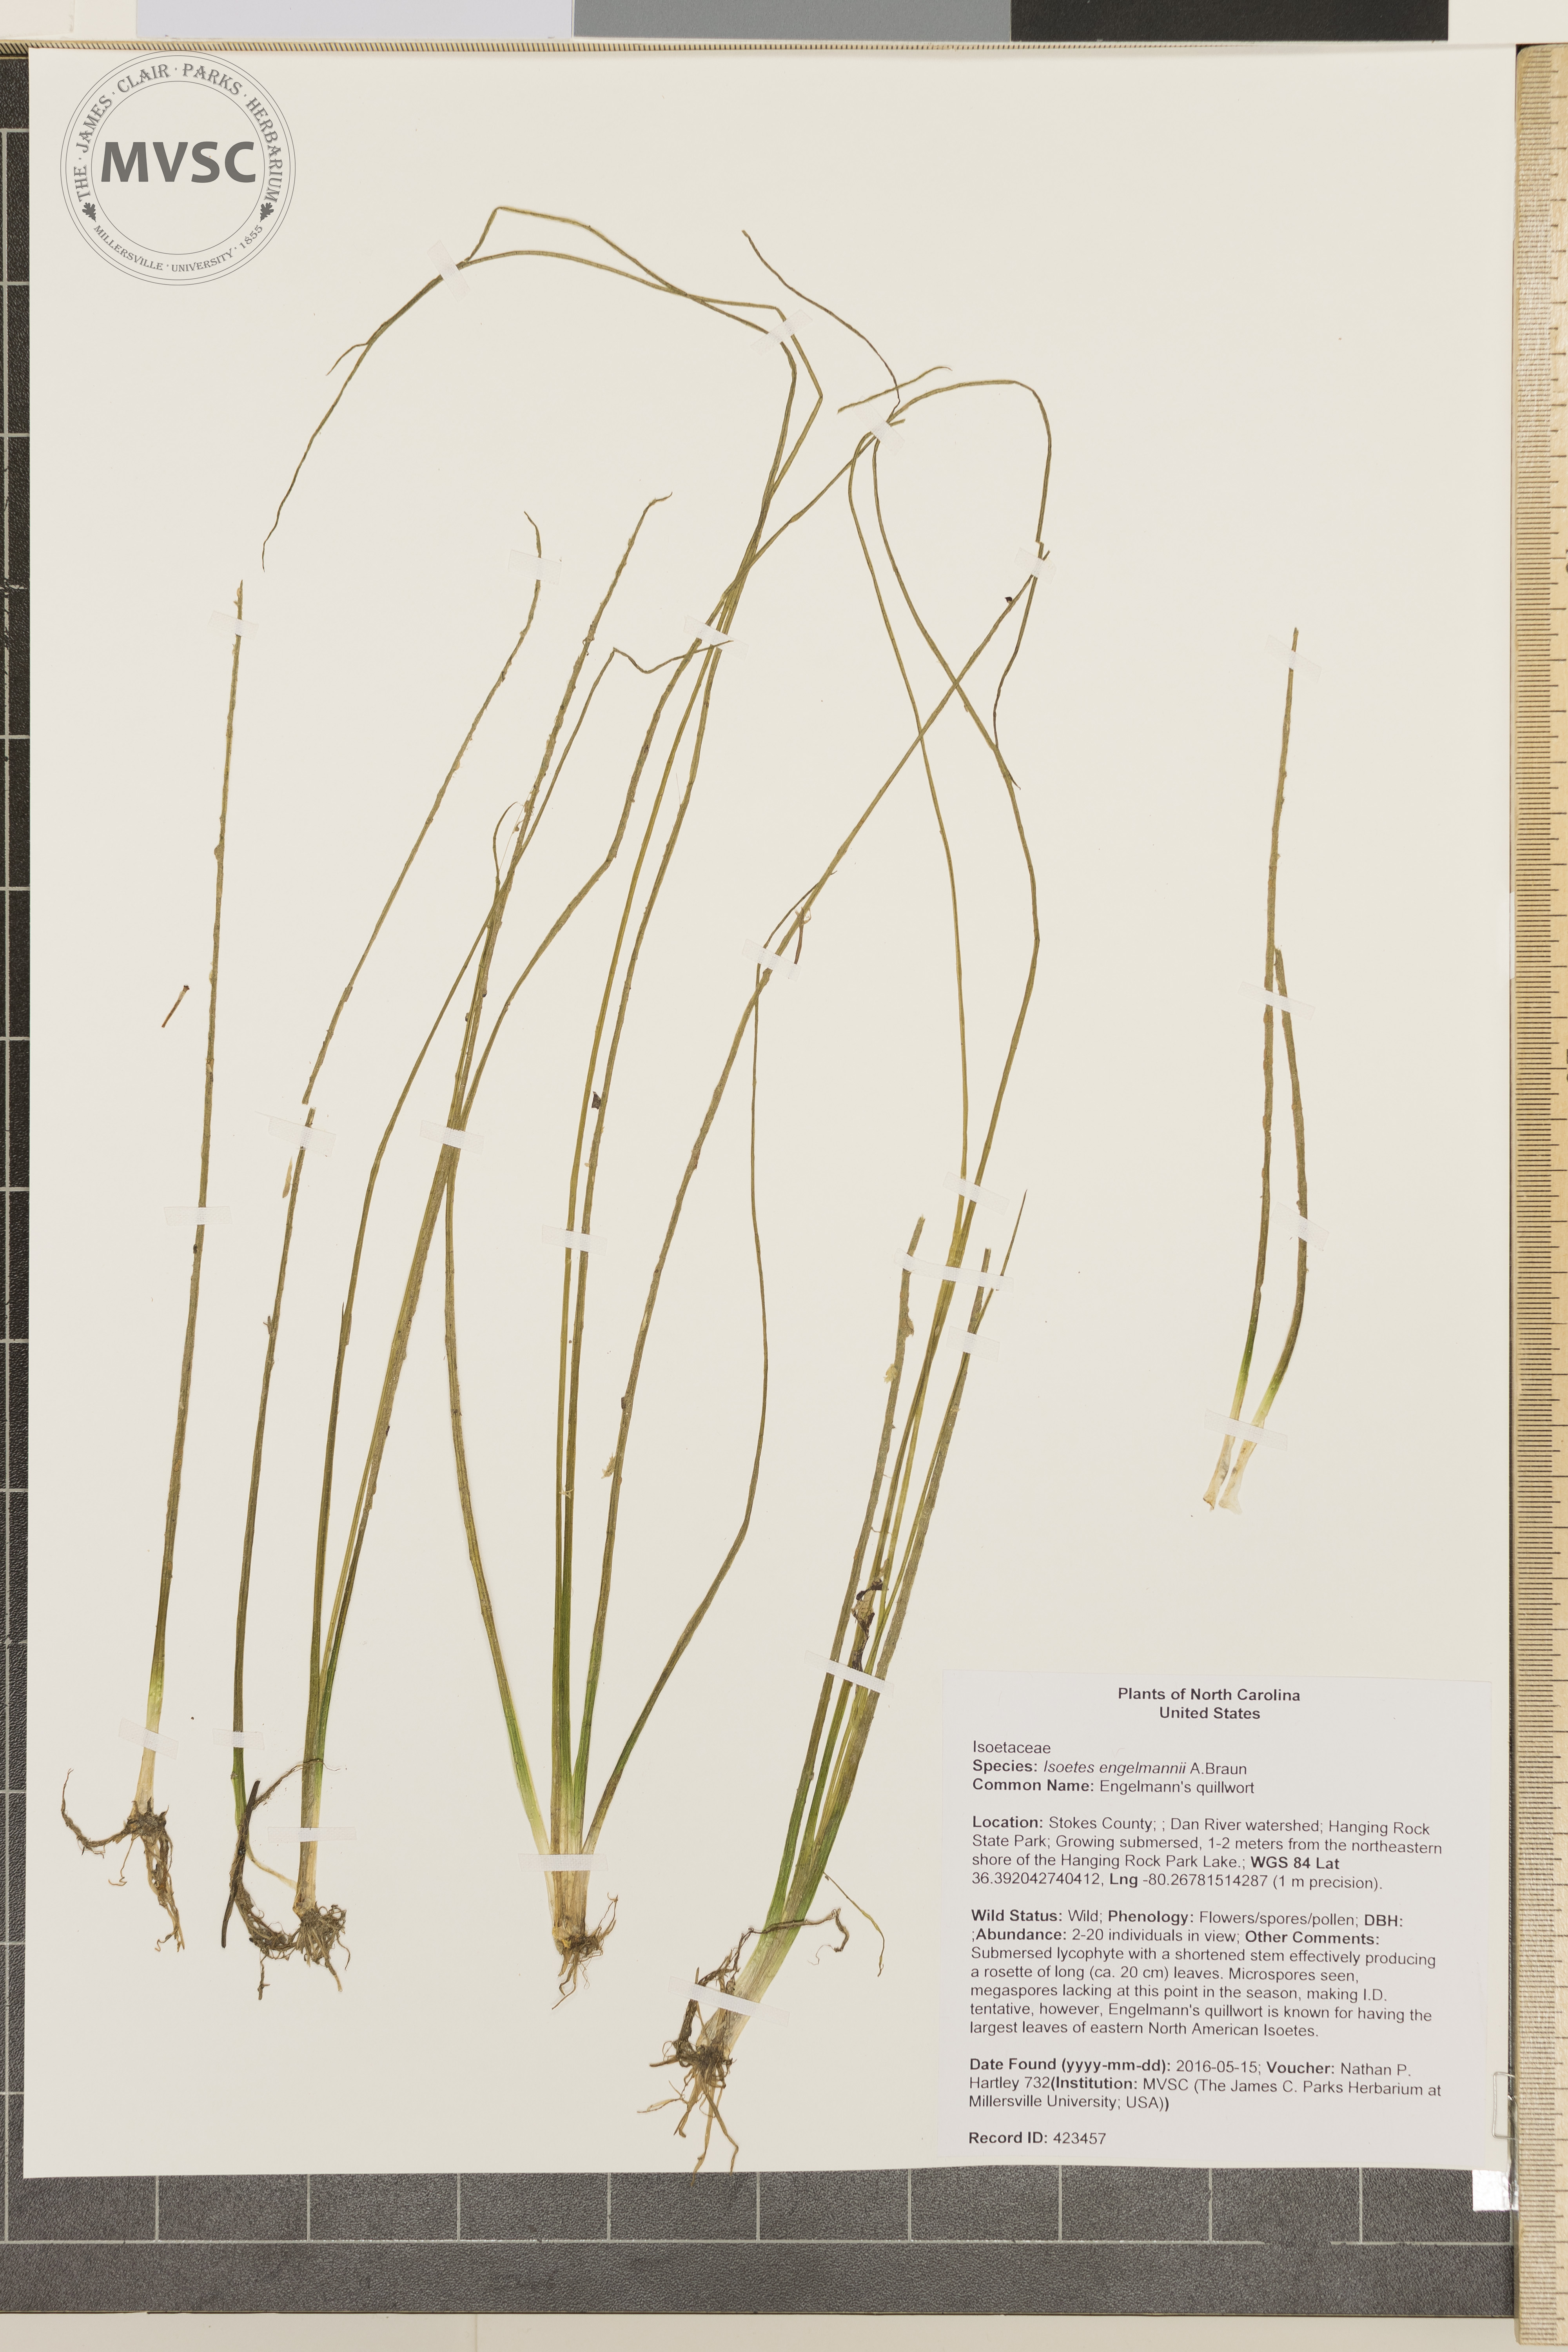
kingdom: Plantae
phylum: Tracheophyta
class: Lycopodiopsida
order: Isoetales
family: Isoetaceae
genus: Isoetes
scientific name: Isoetes engelmannii
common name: Engelmann's quillwort
